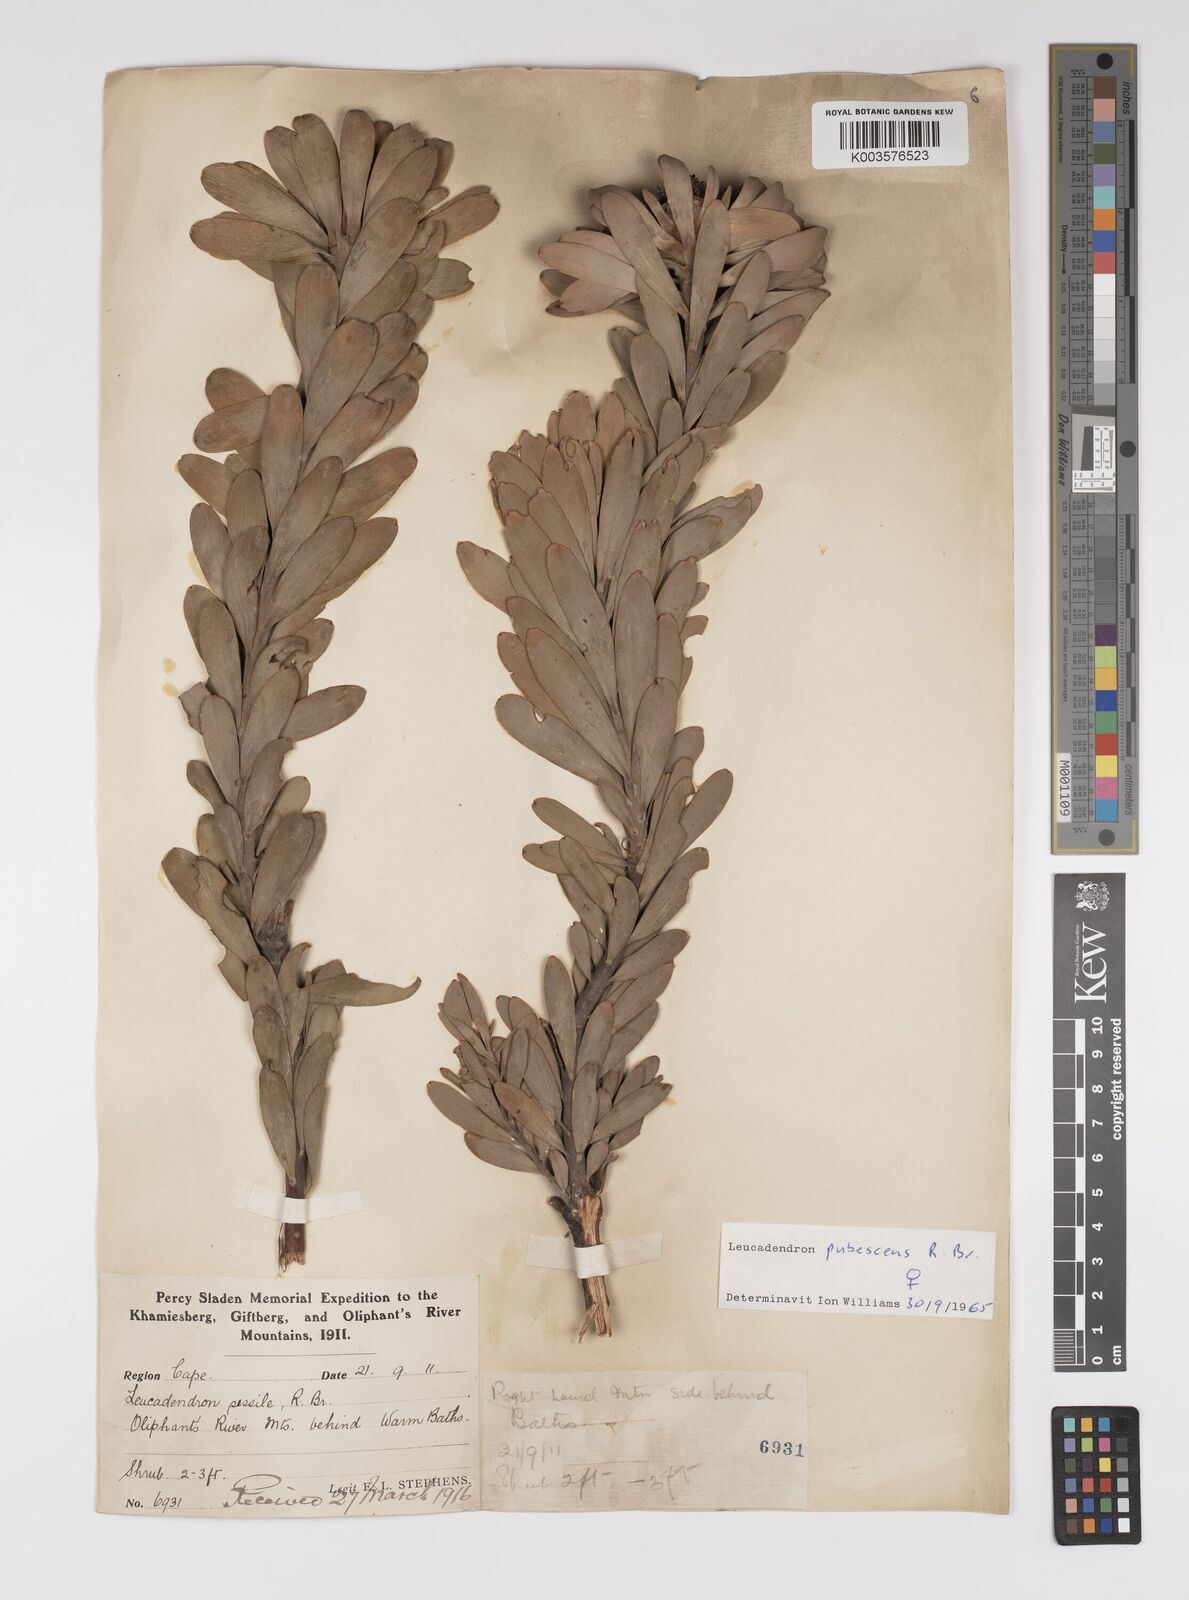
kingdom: Plantae
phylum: Tracheophyta
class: Magnoliopsida
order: Proteales
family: Proteaceae
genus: Leucadendron
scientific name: Leucadendron pubescens
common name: Grey conebush
